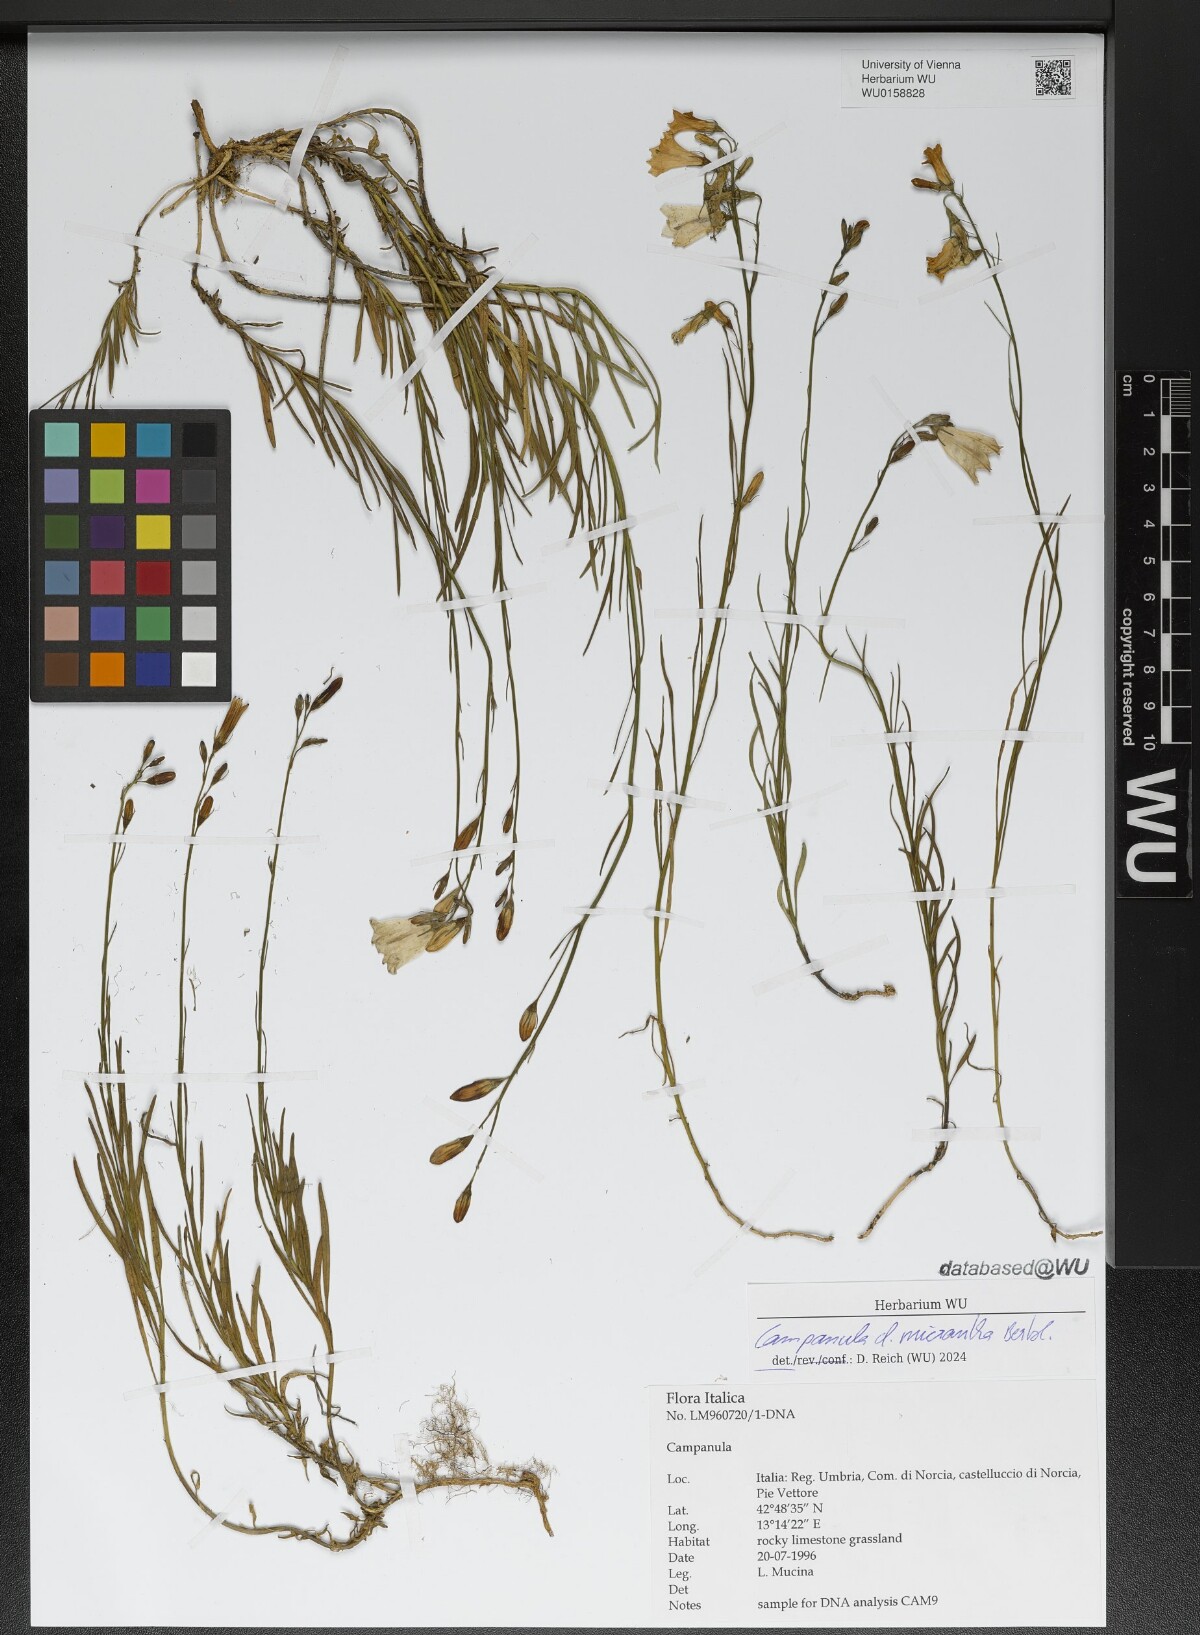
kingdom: Plantae
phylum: Tracheophyta
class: Magnoliopsida
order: Asterales
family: Campanulaceae
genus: Campanula
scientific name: Campanula micrantha
